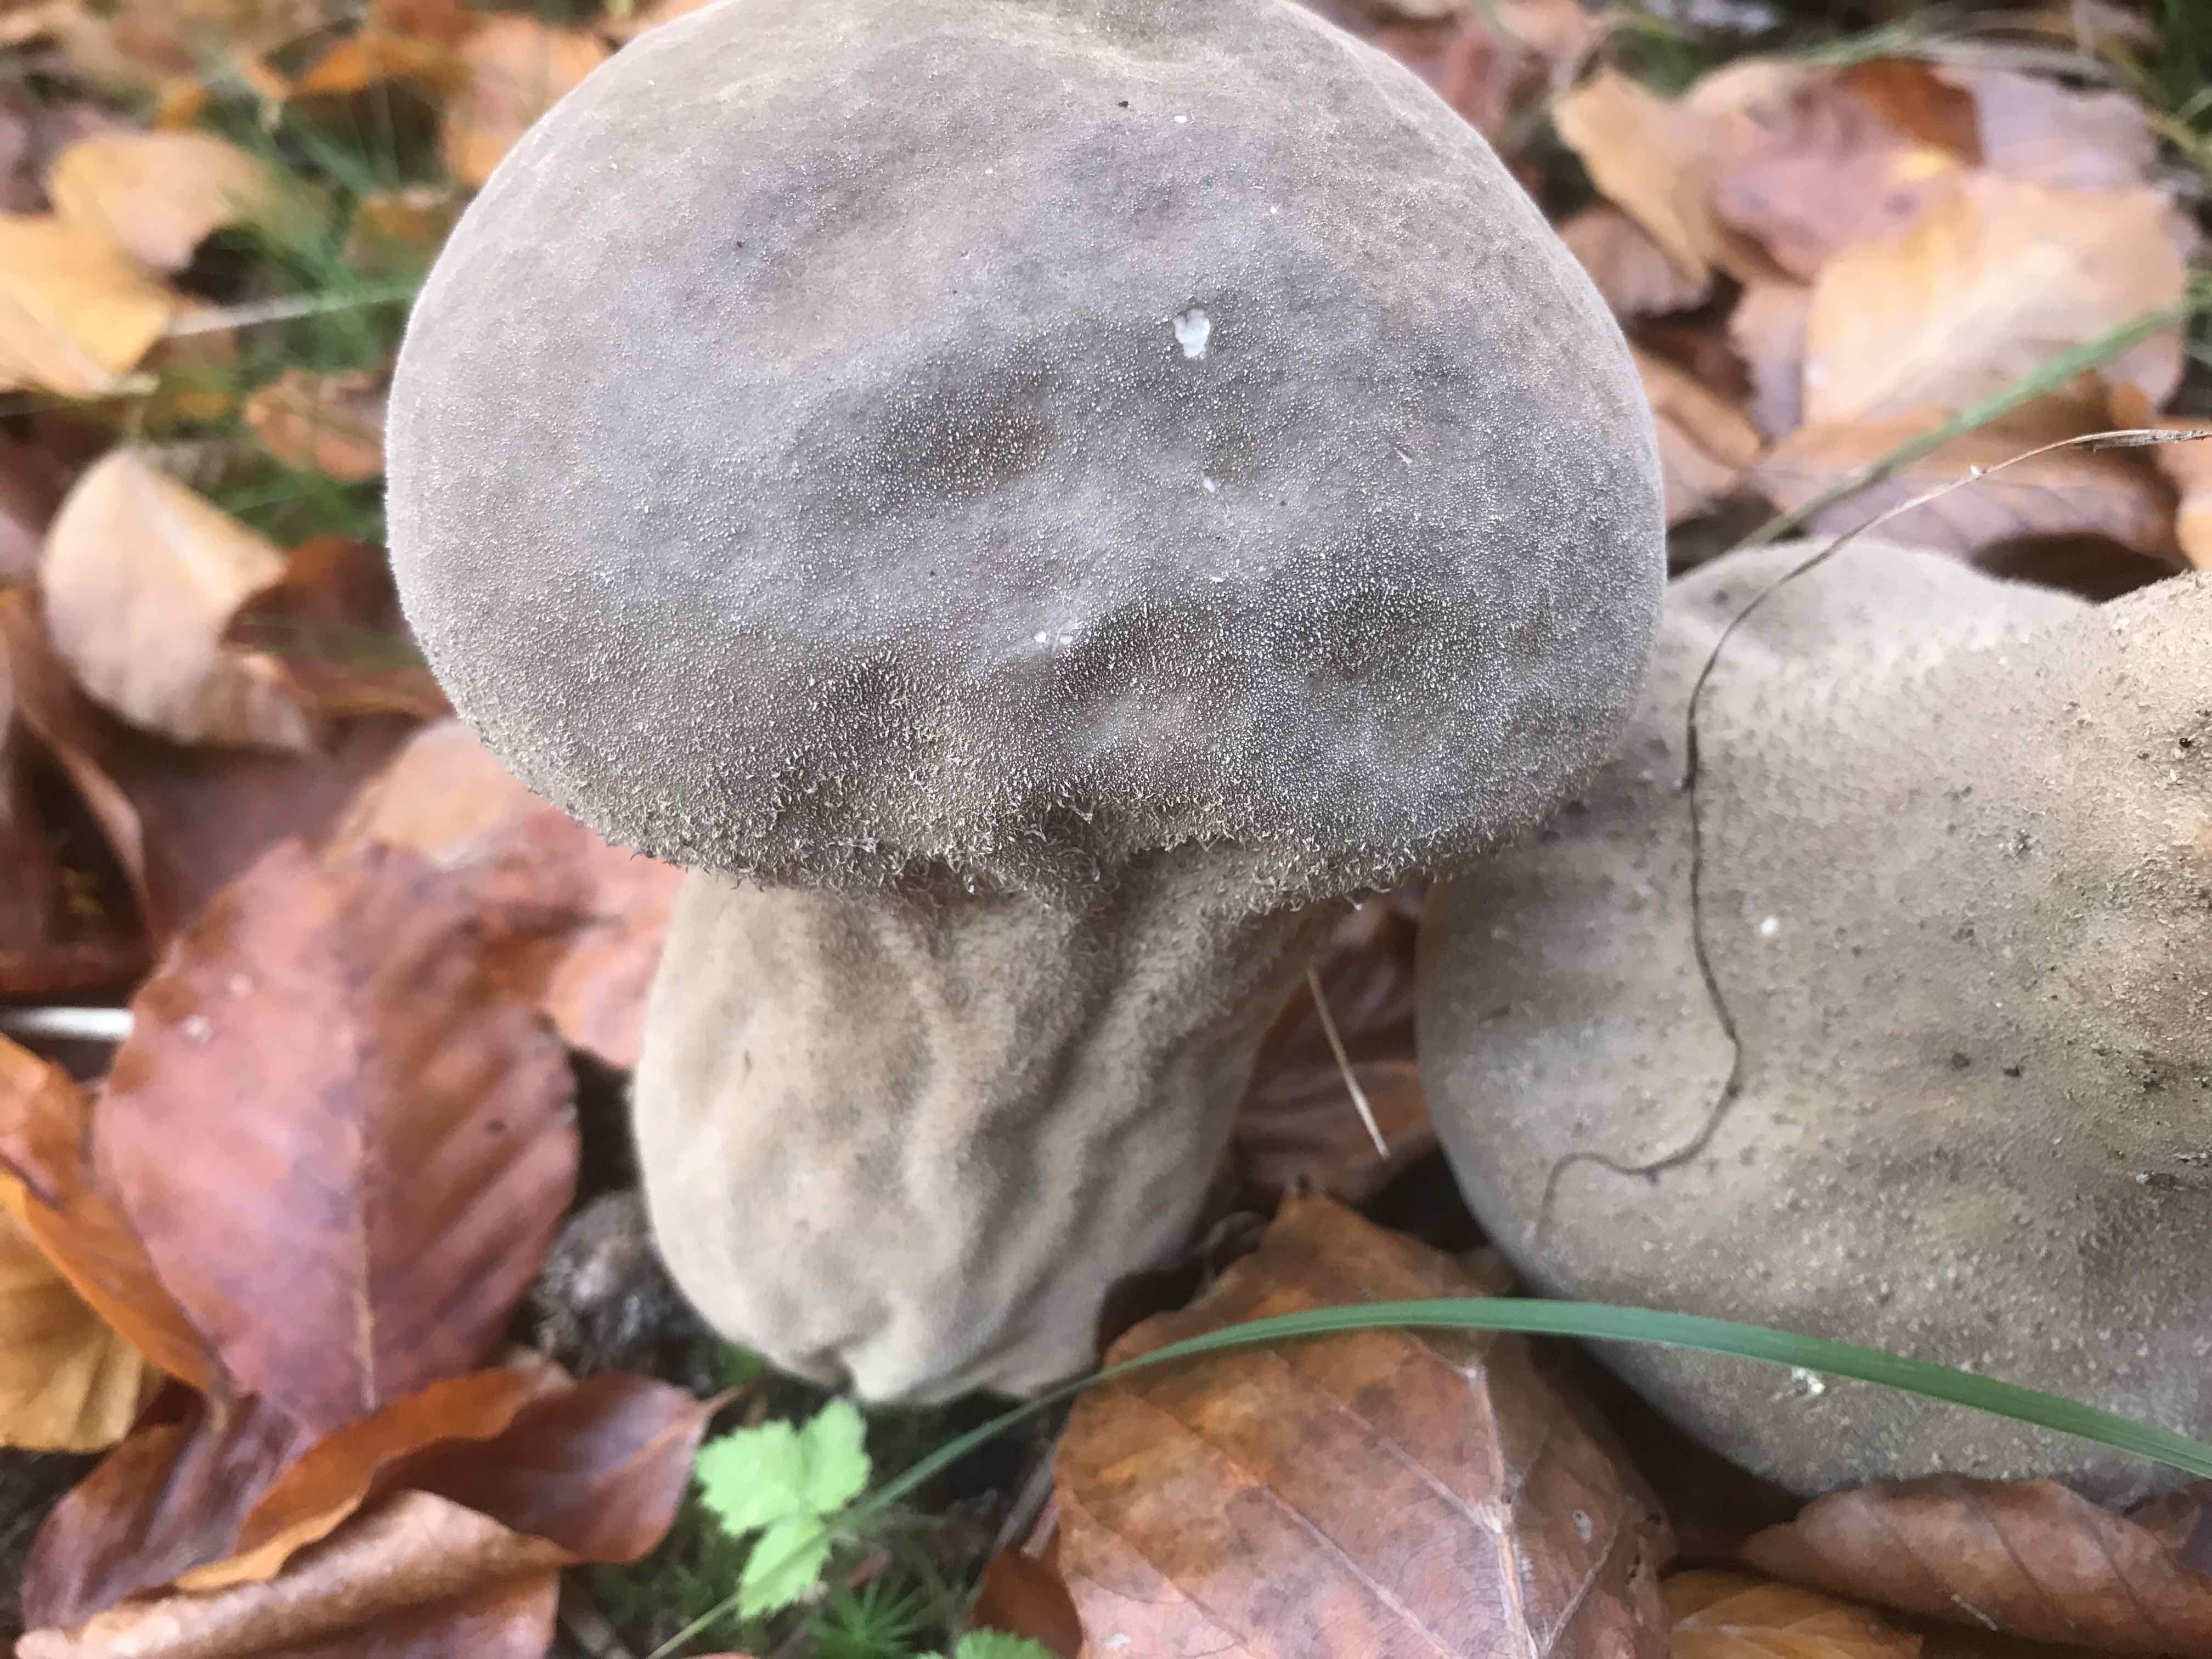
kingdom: Fungi
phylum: Basidiomycota
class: Agaricomycetes
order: Agaricales
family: Lycoperdaceae
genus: Lycoperdon
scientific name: Lycoperdon excipuliforme
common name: højstokket støvbold
